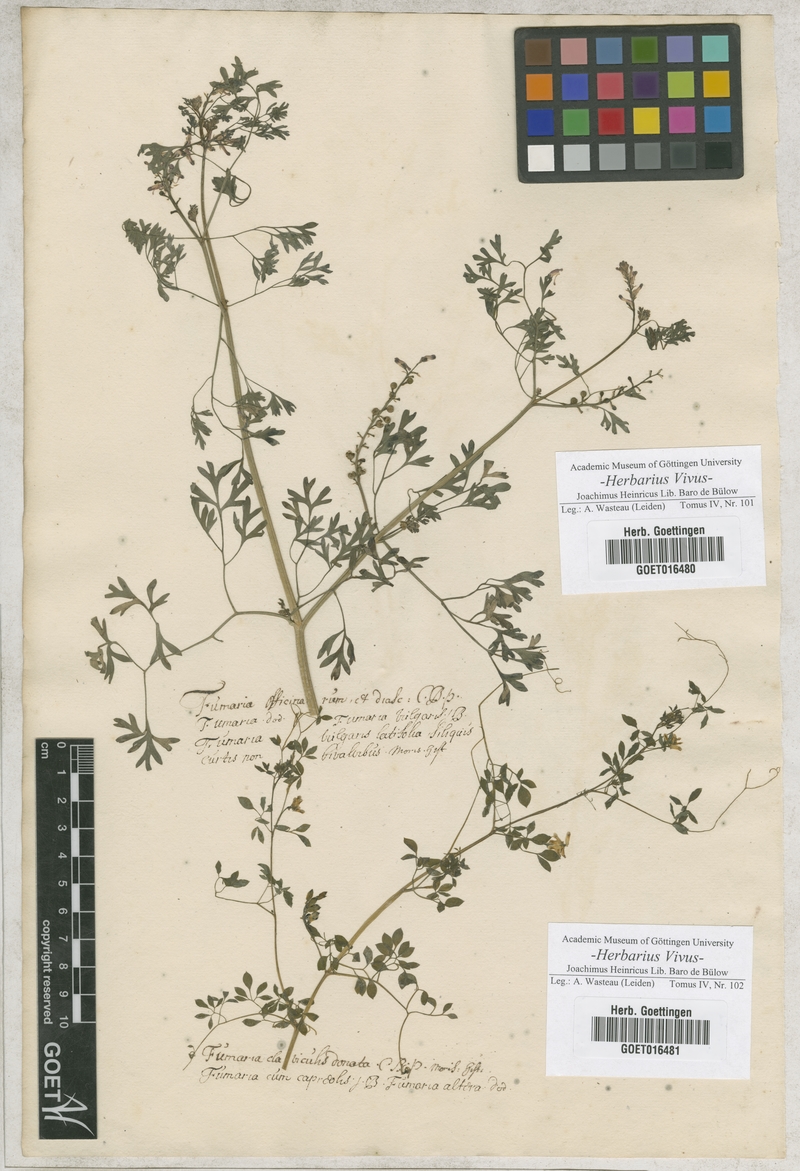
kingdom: Plantae
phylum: Tracheophyta
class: Magnoliopsida
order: Ranunculales
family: Papaveraceae
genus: Fumaria
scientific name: Fumaria officinalis
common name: Common fumitory
